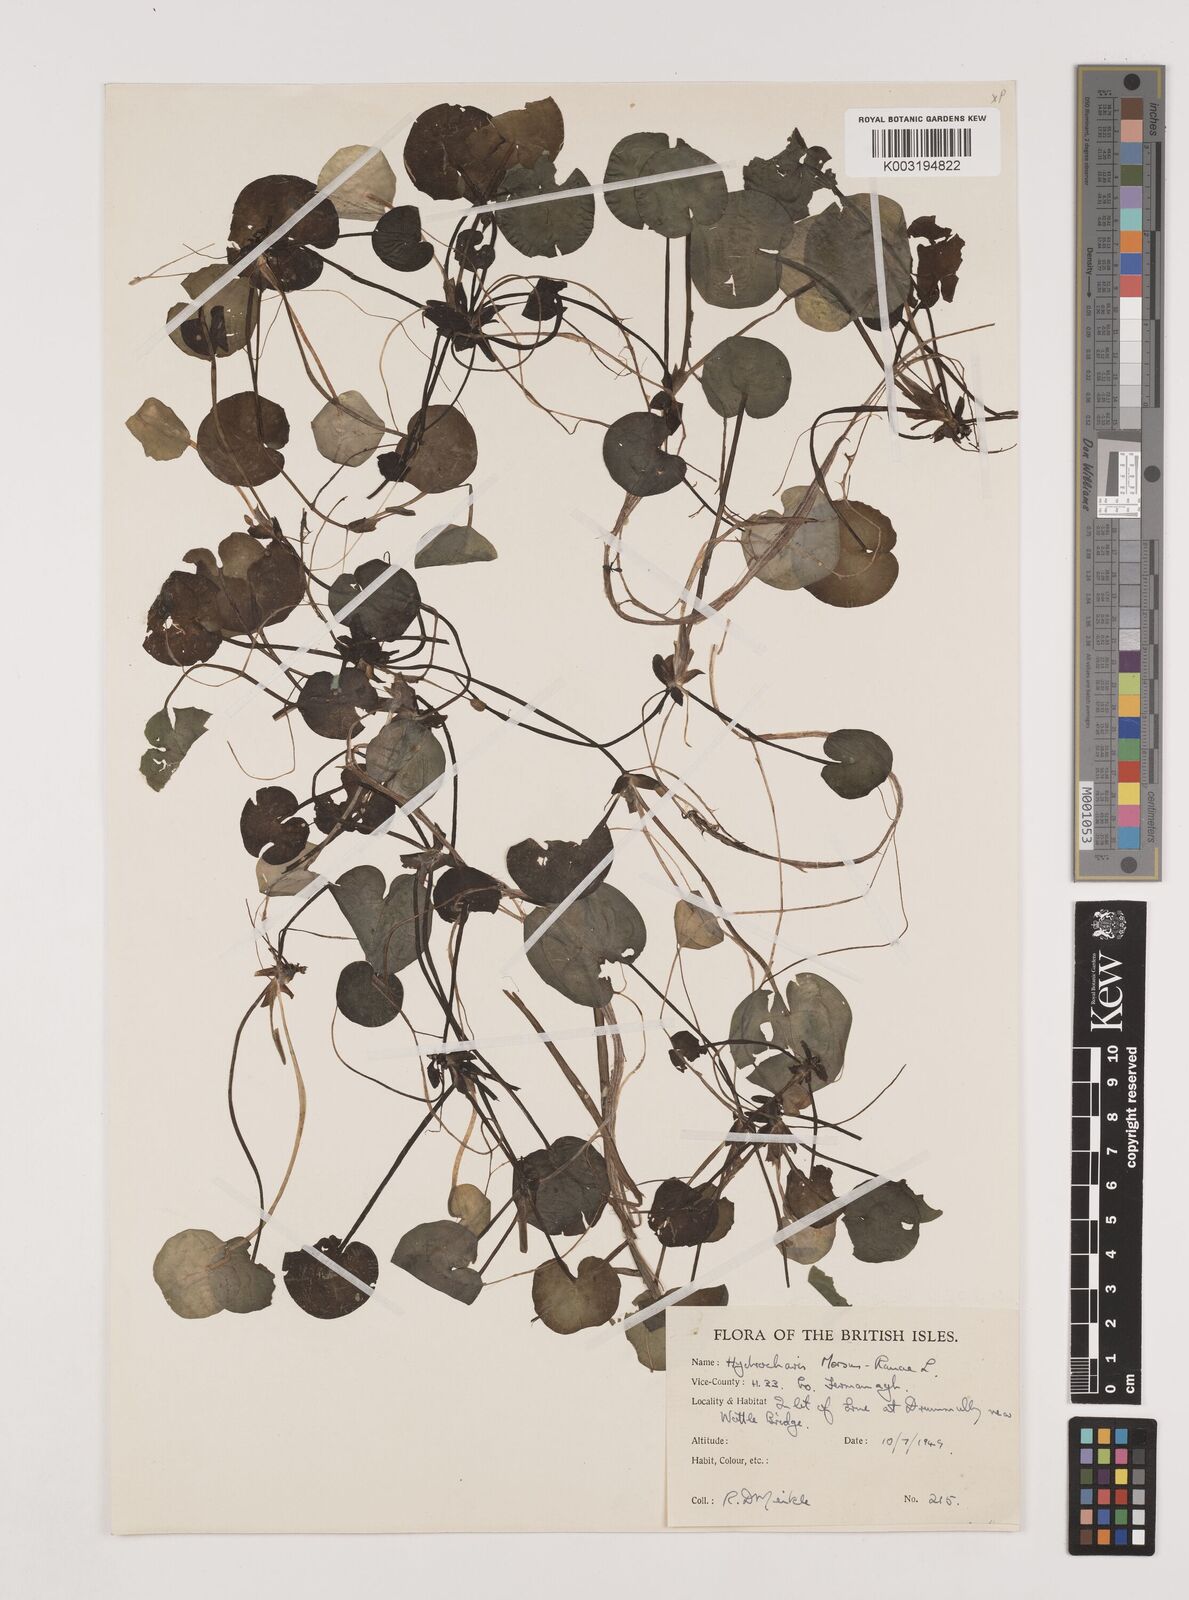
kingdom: Plantae
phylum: Tracheophyta
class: Liliopsida
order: Alismatales
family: Hydrocharitaceae
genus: Hydrocharis
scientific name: Hydrocharis morsus-ranae
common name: Frogbit
